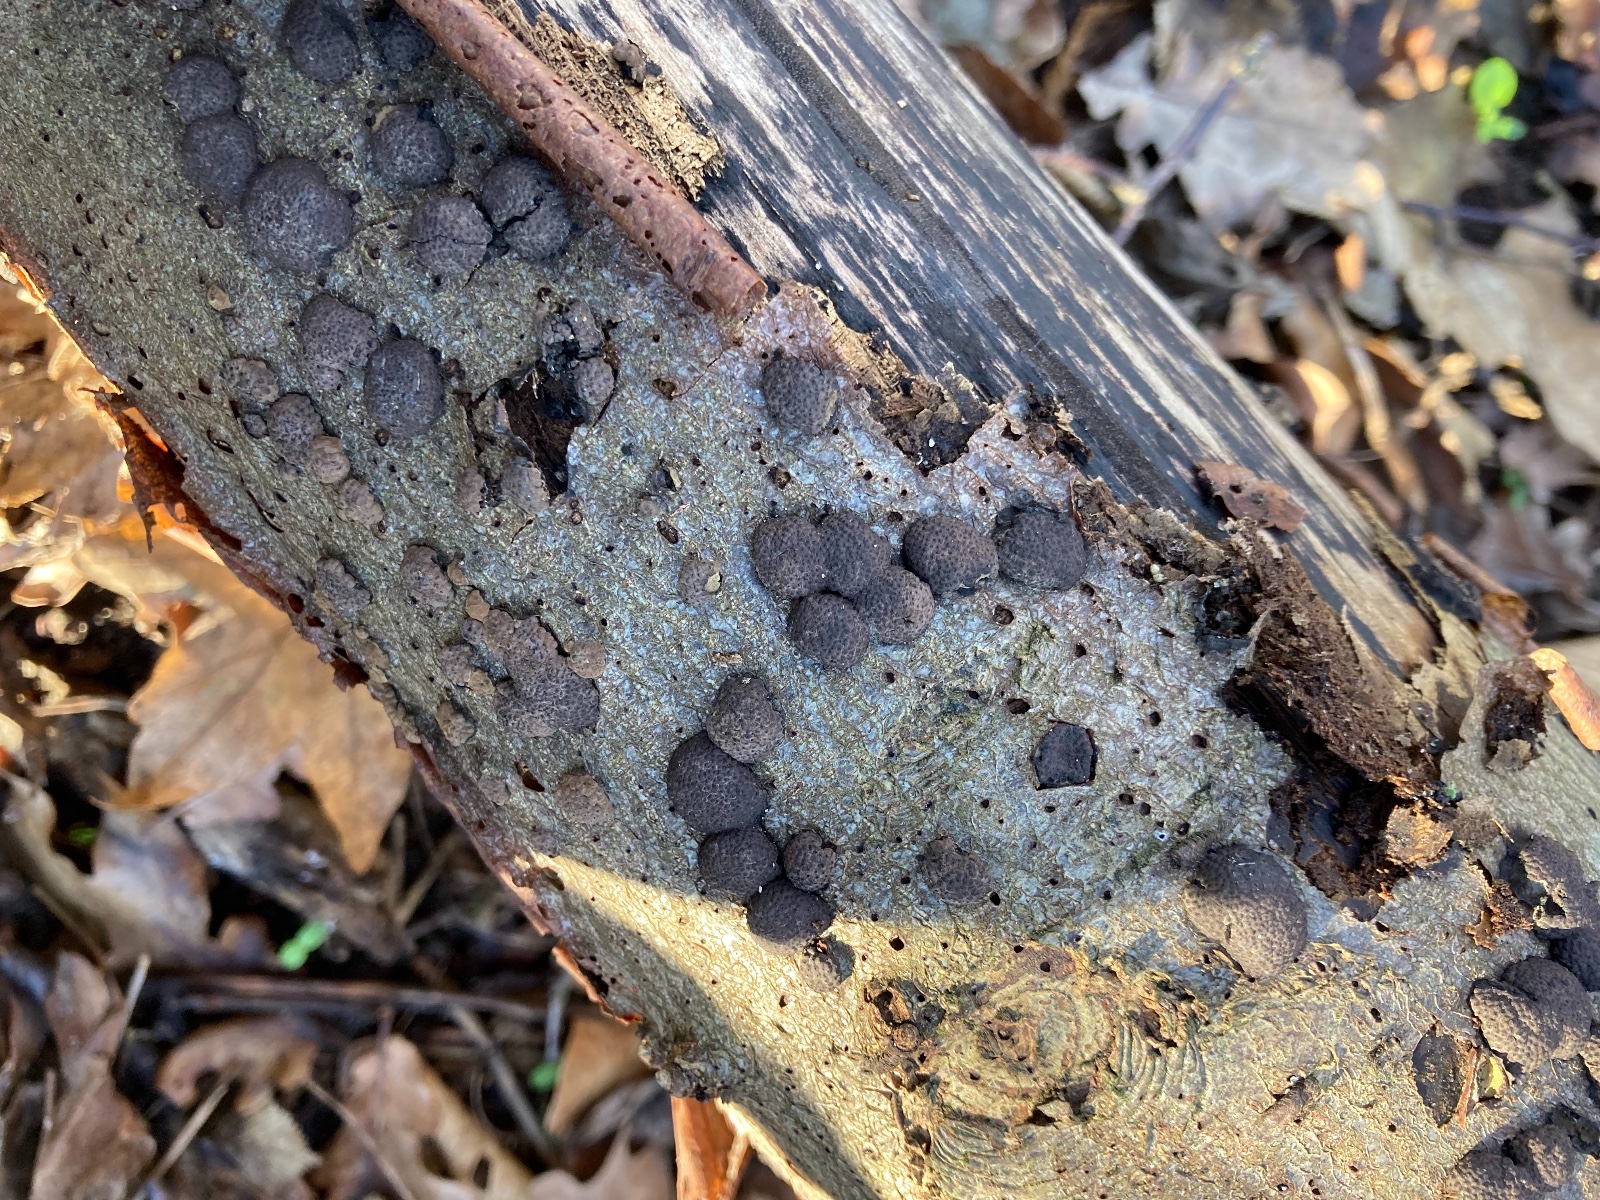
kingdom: Fungi
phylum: Ascomycota
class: Sordariomycetes
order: Xylariales
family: Hypoxylaceae
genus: Jackrogersella
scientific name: Jackrogersella multiformis
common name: foranderlig kulbær
